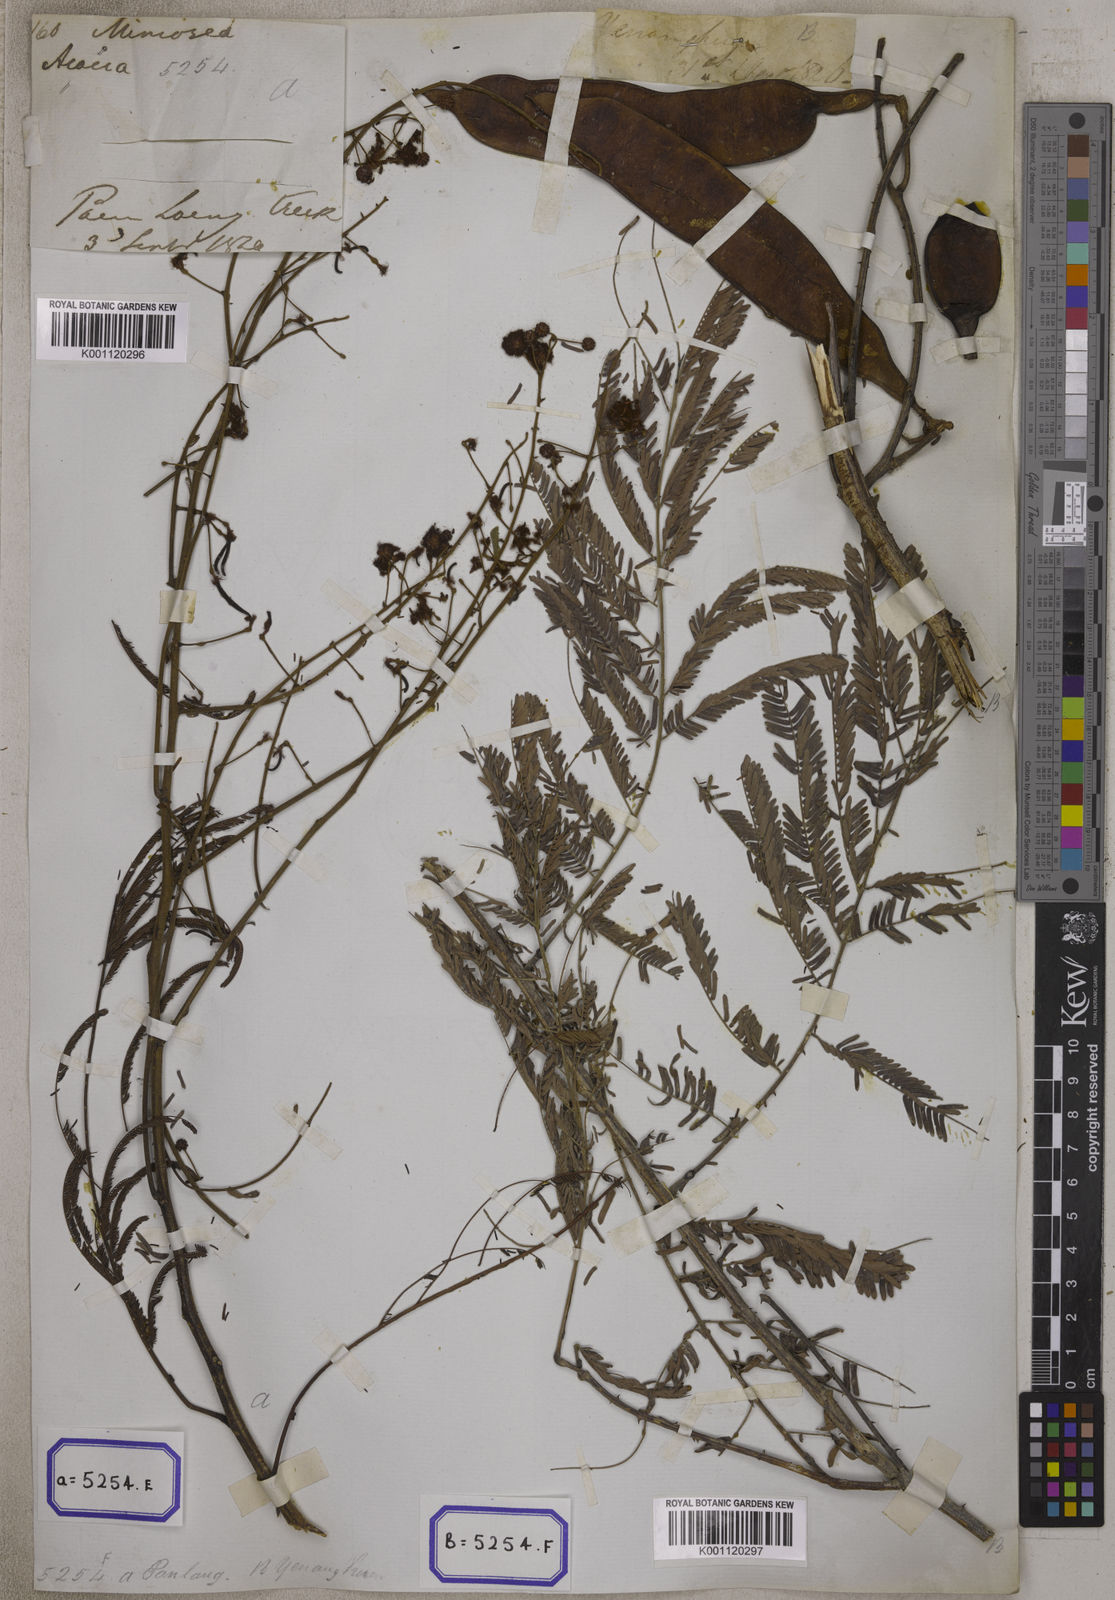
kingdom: Plantae
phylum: Tracheophyta
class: Magnoliopsida
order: Fabales
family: Fabaceae
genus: Senegalia
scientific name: Senegalia pennata
